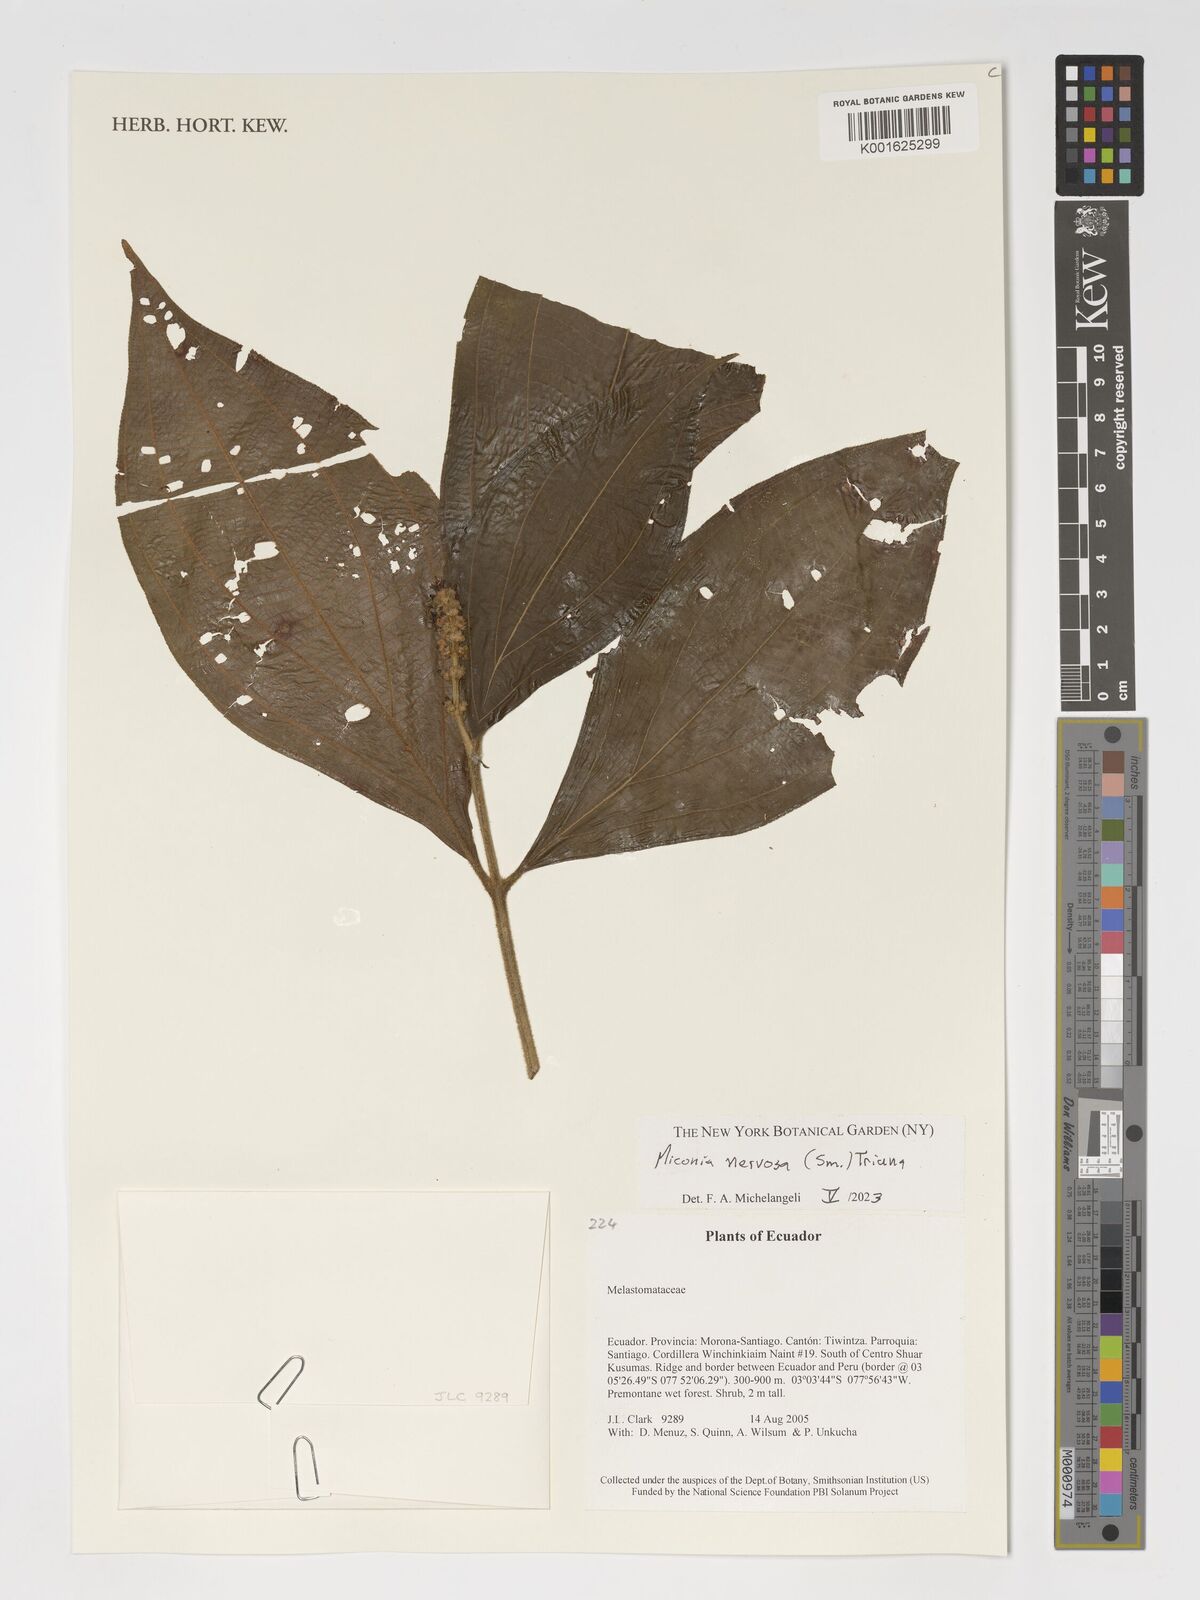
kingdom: Plantae
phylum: Tracheophyta
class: Magnoliopsida
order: Myrtales
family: Melastomataceae
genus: Miconia
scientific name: Miconia nervosa
